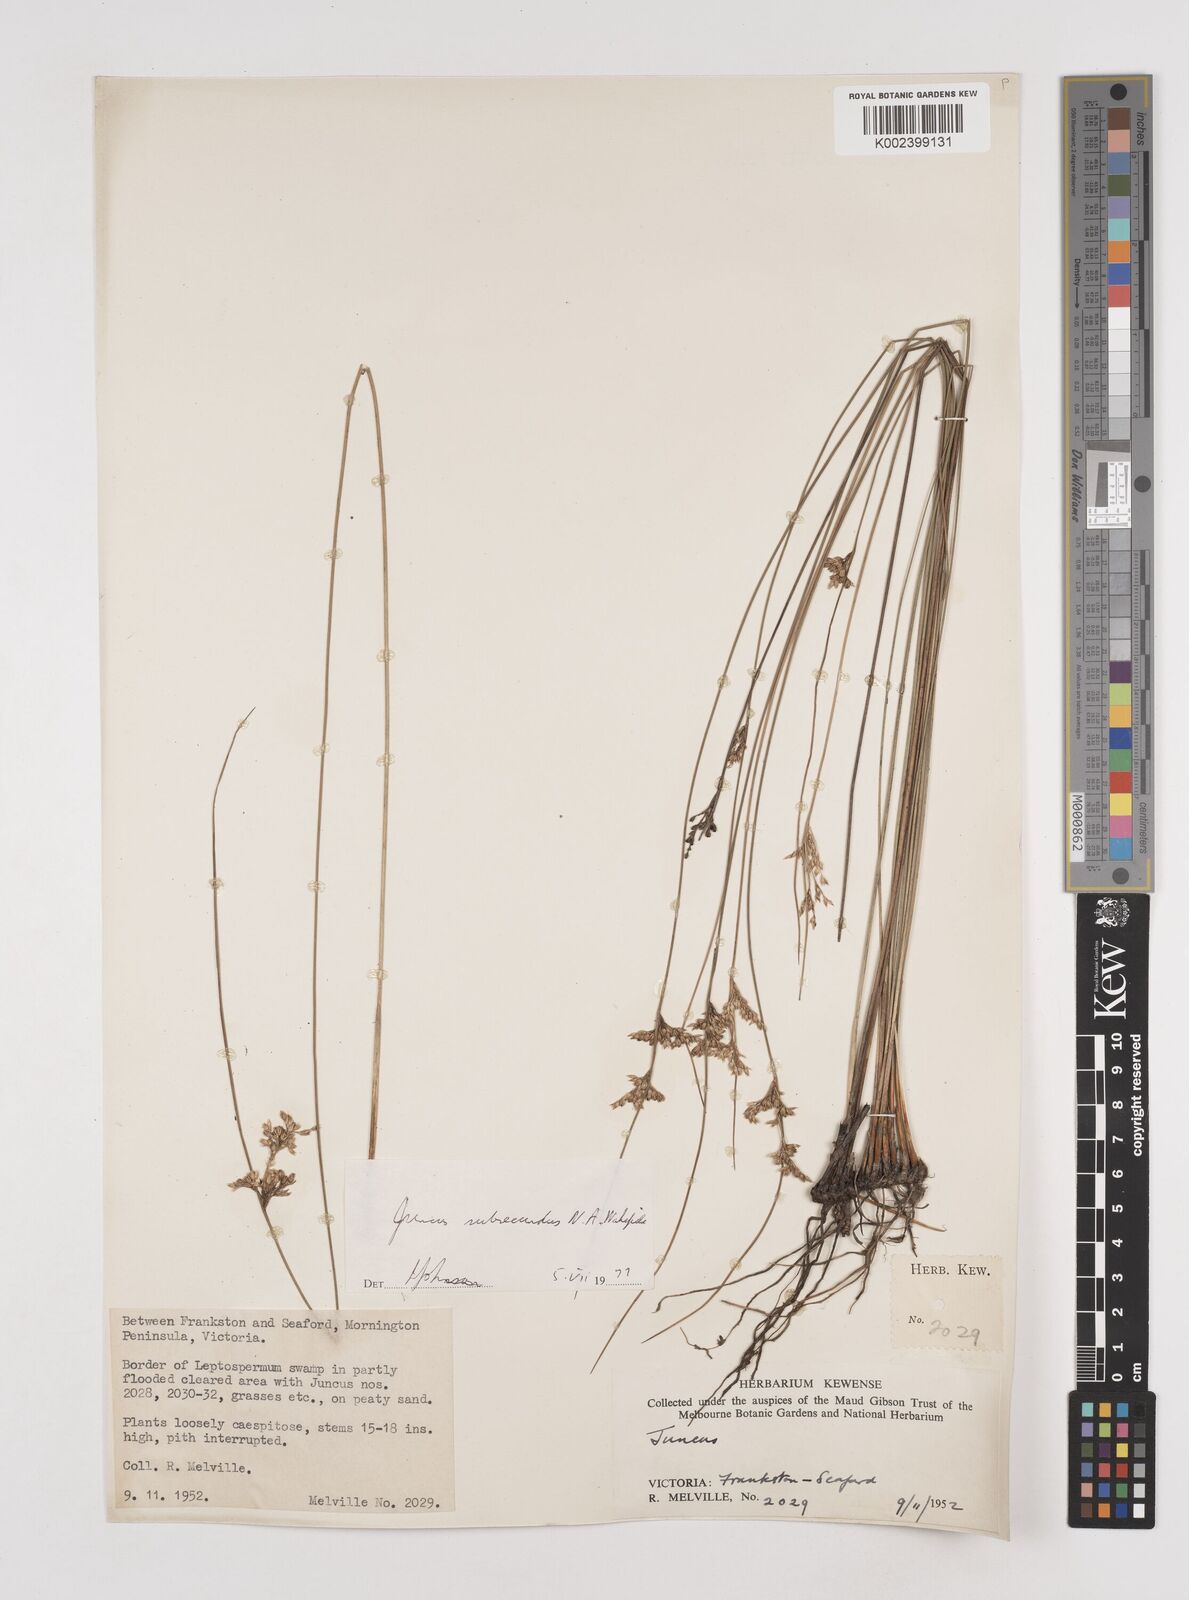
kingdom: Plantae
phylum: Tracheophyta
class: Liliopsida
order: Poales
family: Juncaceae
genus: Juncus
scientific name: Juncus subsecundus
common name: Fingered rush
